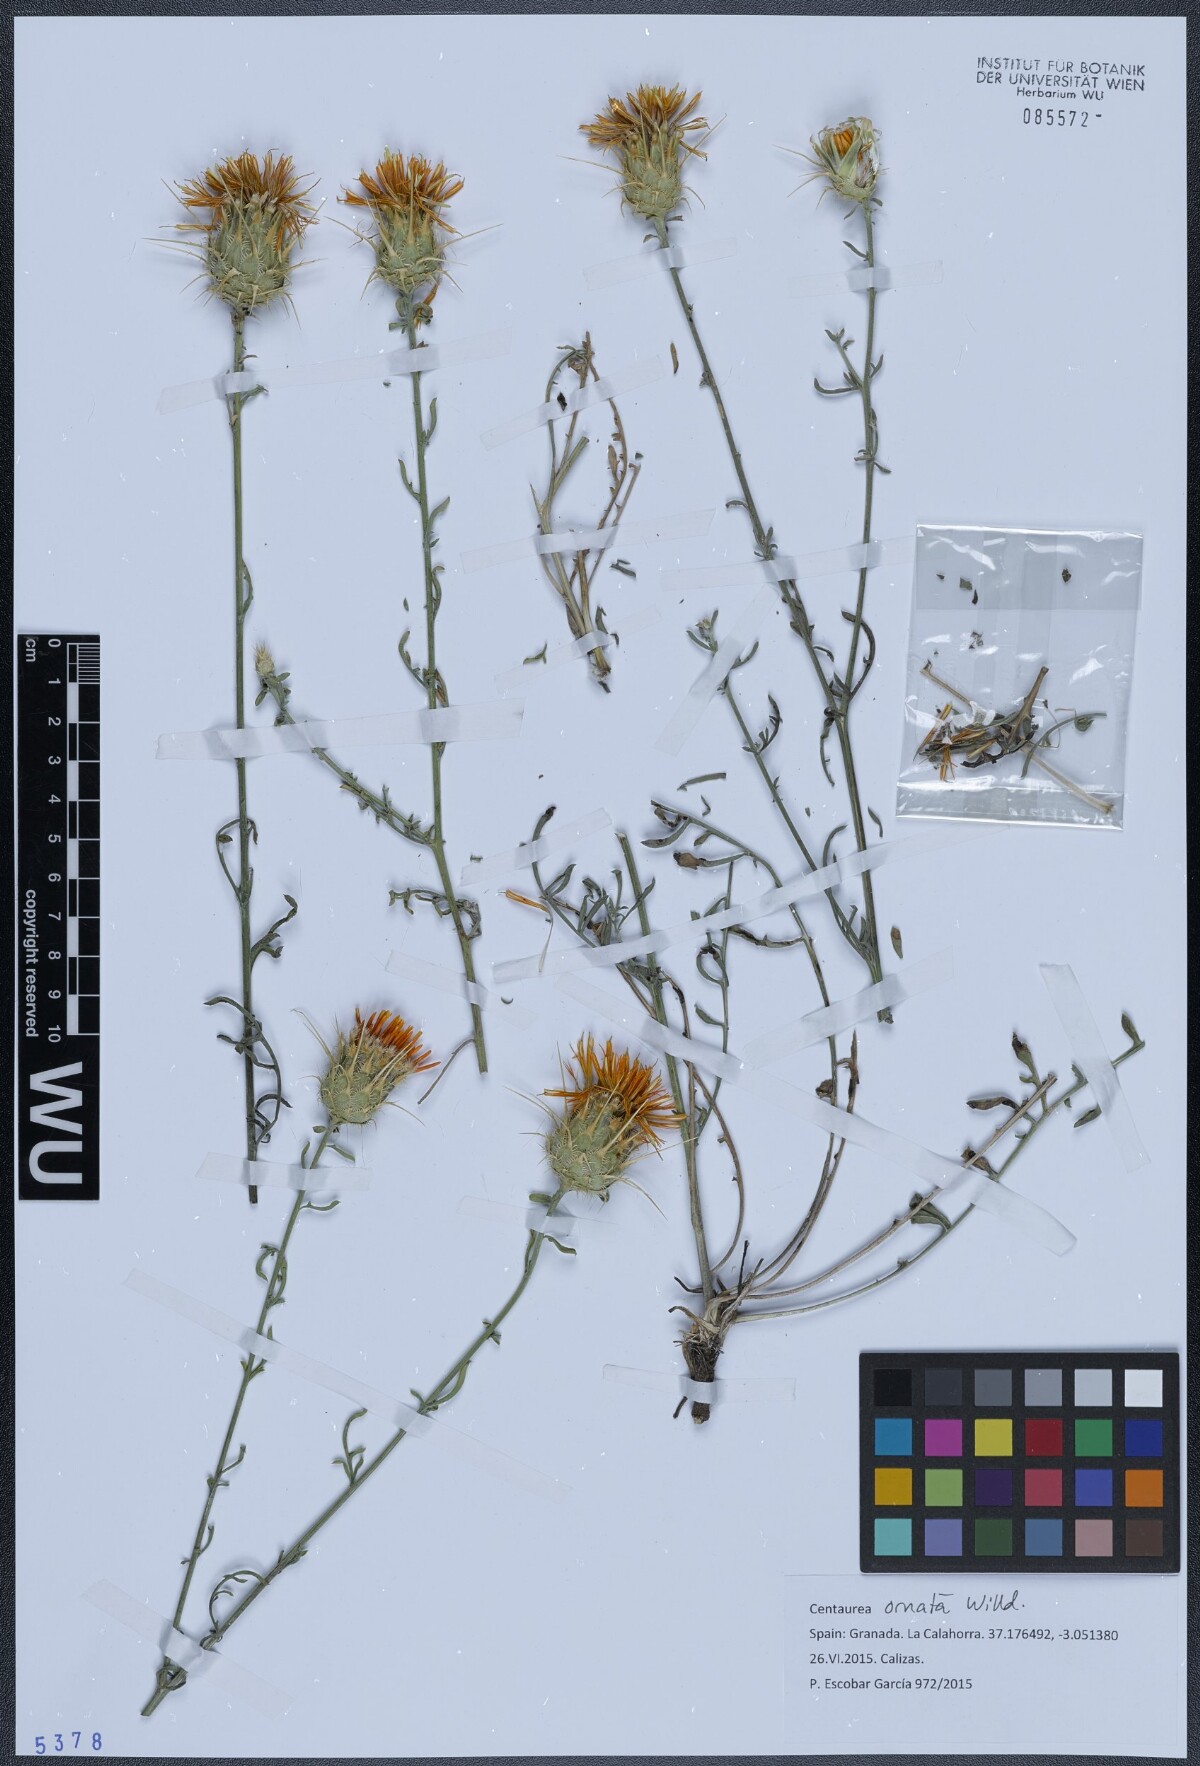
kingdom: Plantae
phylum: Tracheophyta
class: Magnoliopsida
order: Asterales
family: Asteraceae
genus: Centaurea
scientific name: Centaurea ornata
